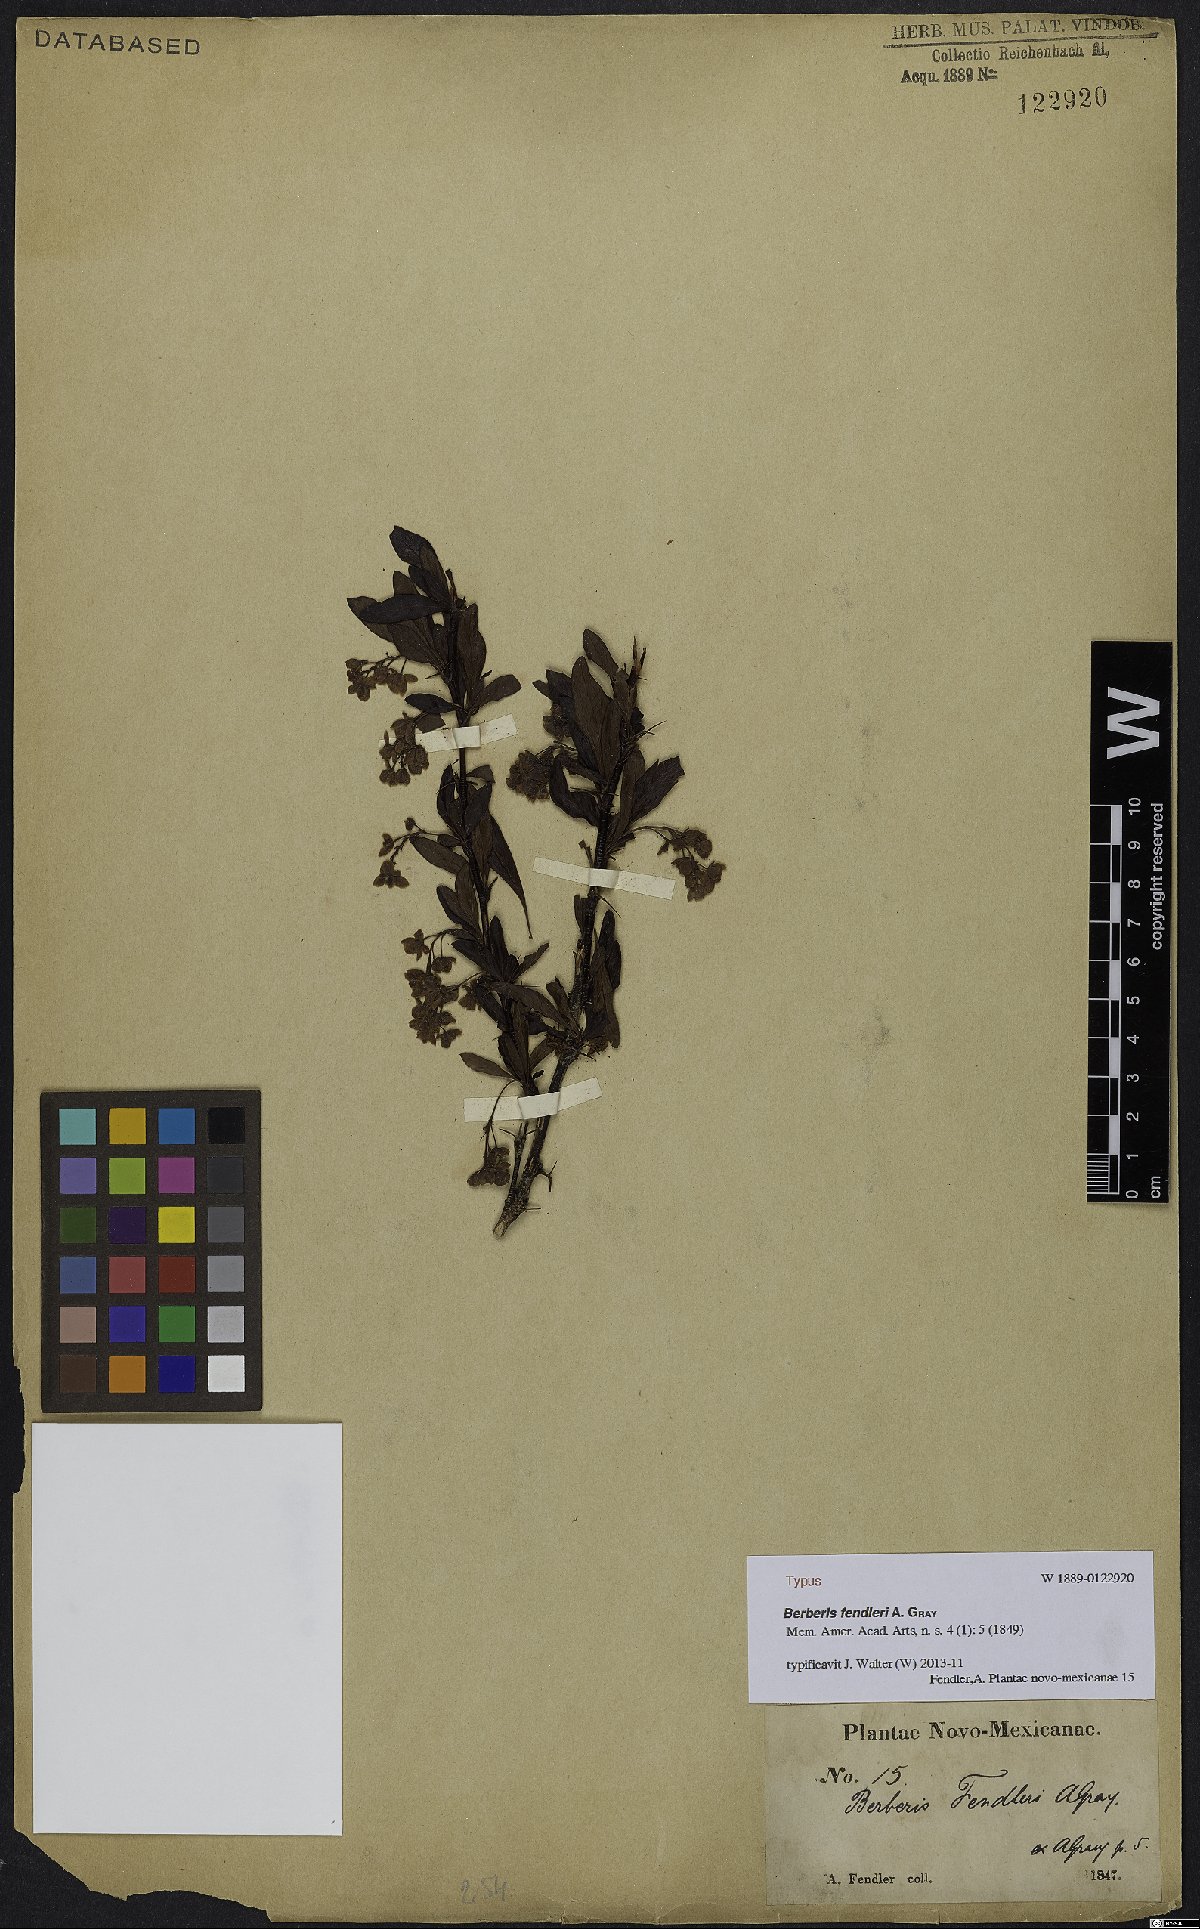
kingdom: Plantae
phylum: Tracheophyta
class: Magnoliopsida
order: Ranunculales
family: Berberidaceae
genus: Berberis
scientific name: Berberis fendleri
